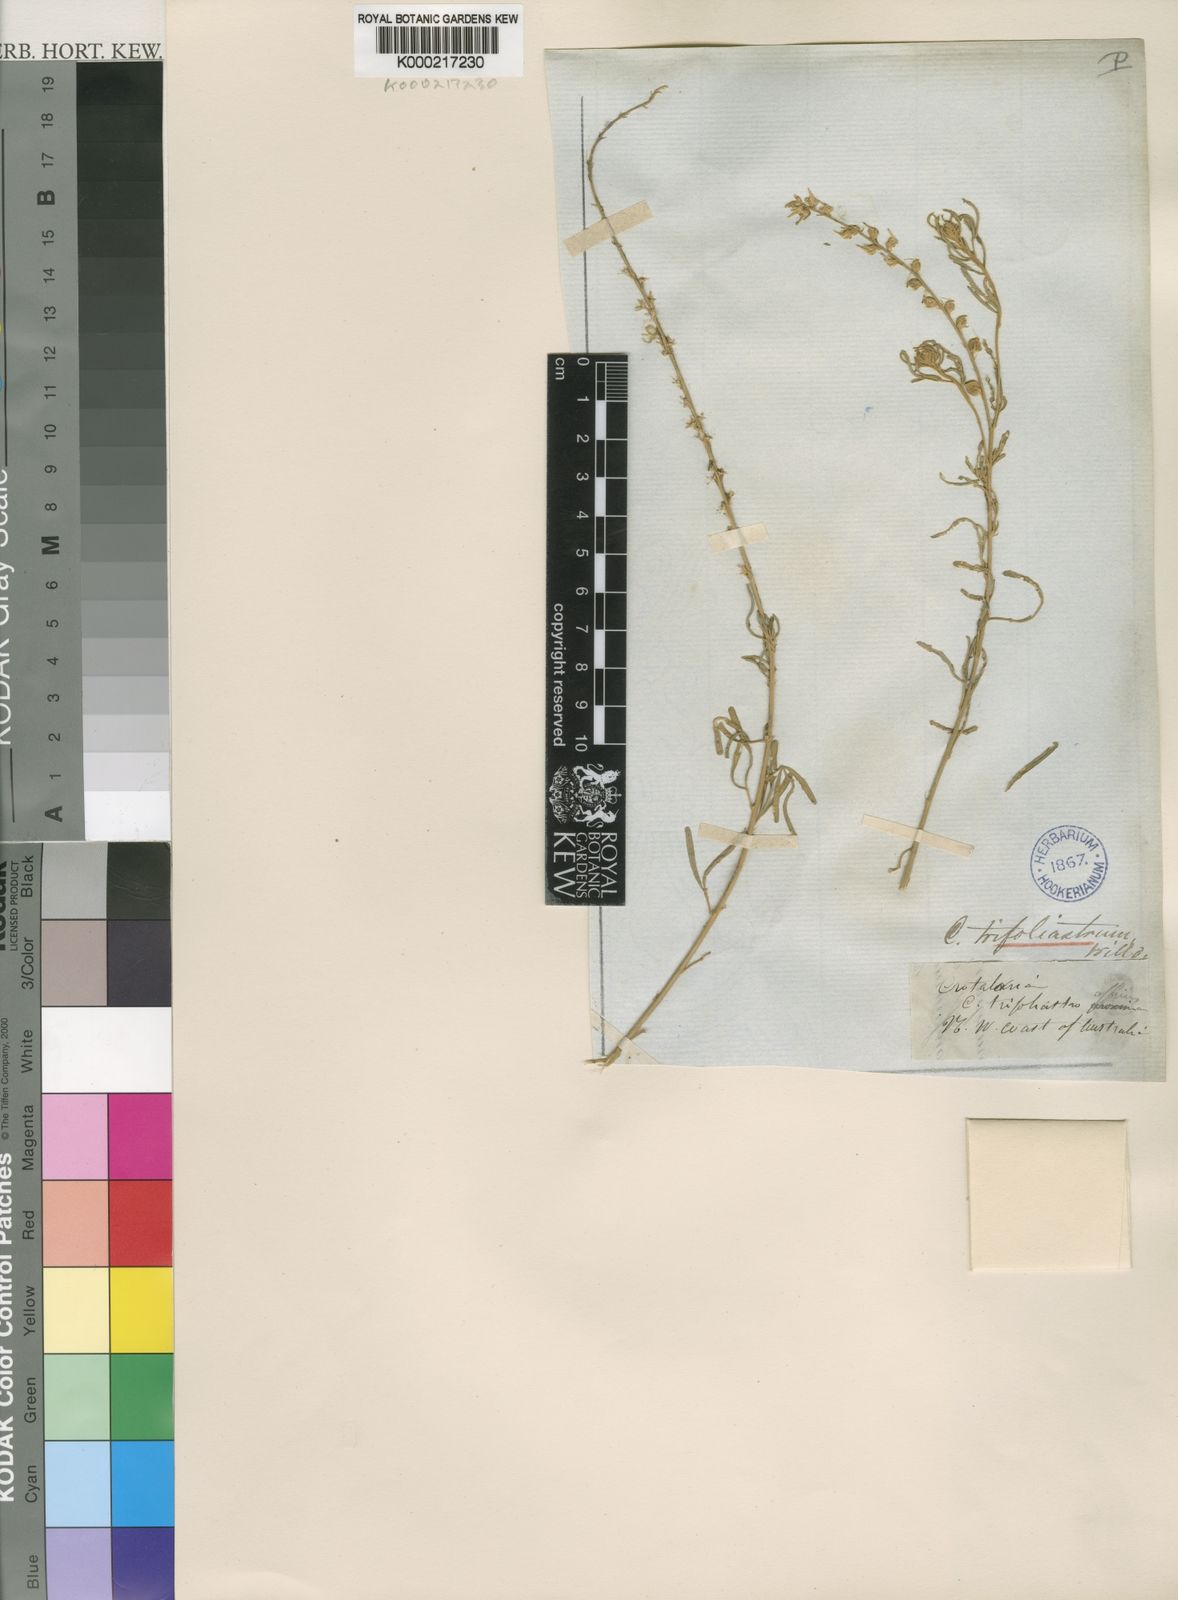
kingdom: Plantae
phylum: Tracheophyta
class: Magnoliopsida
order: Fabales
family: Fabaceae
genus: Crotalaria
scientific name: Crotalaria trifoliastrum
